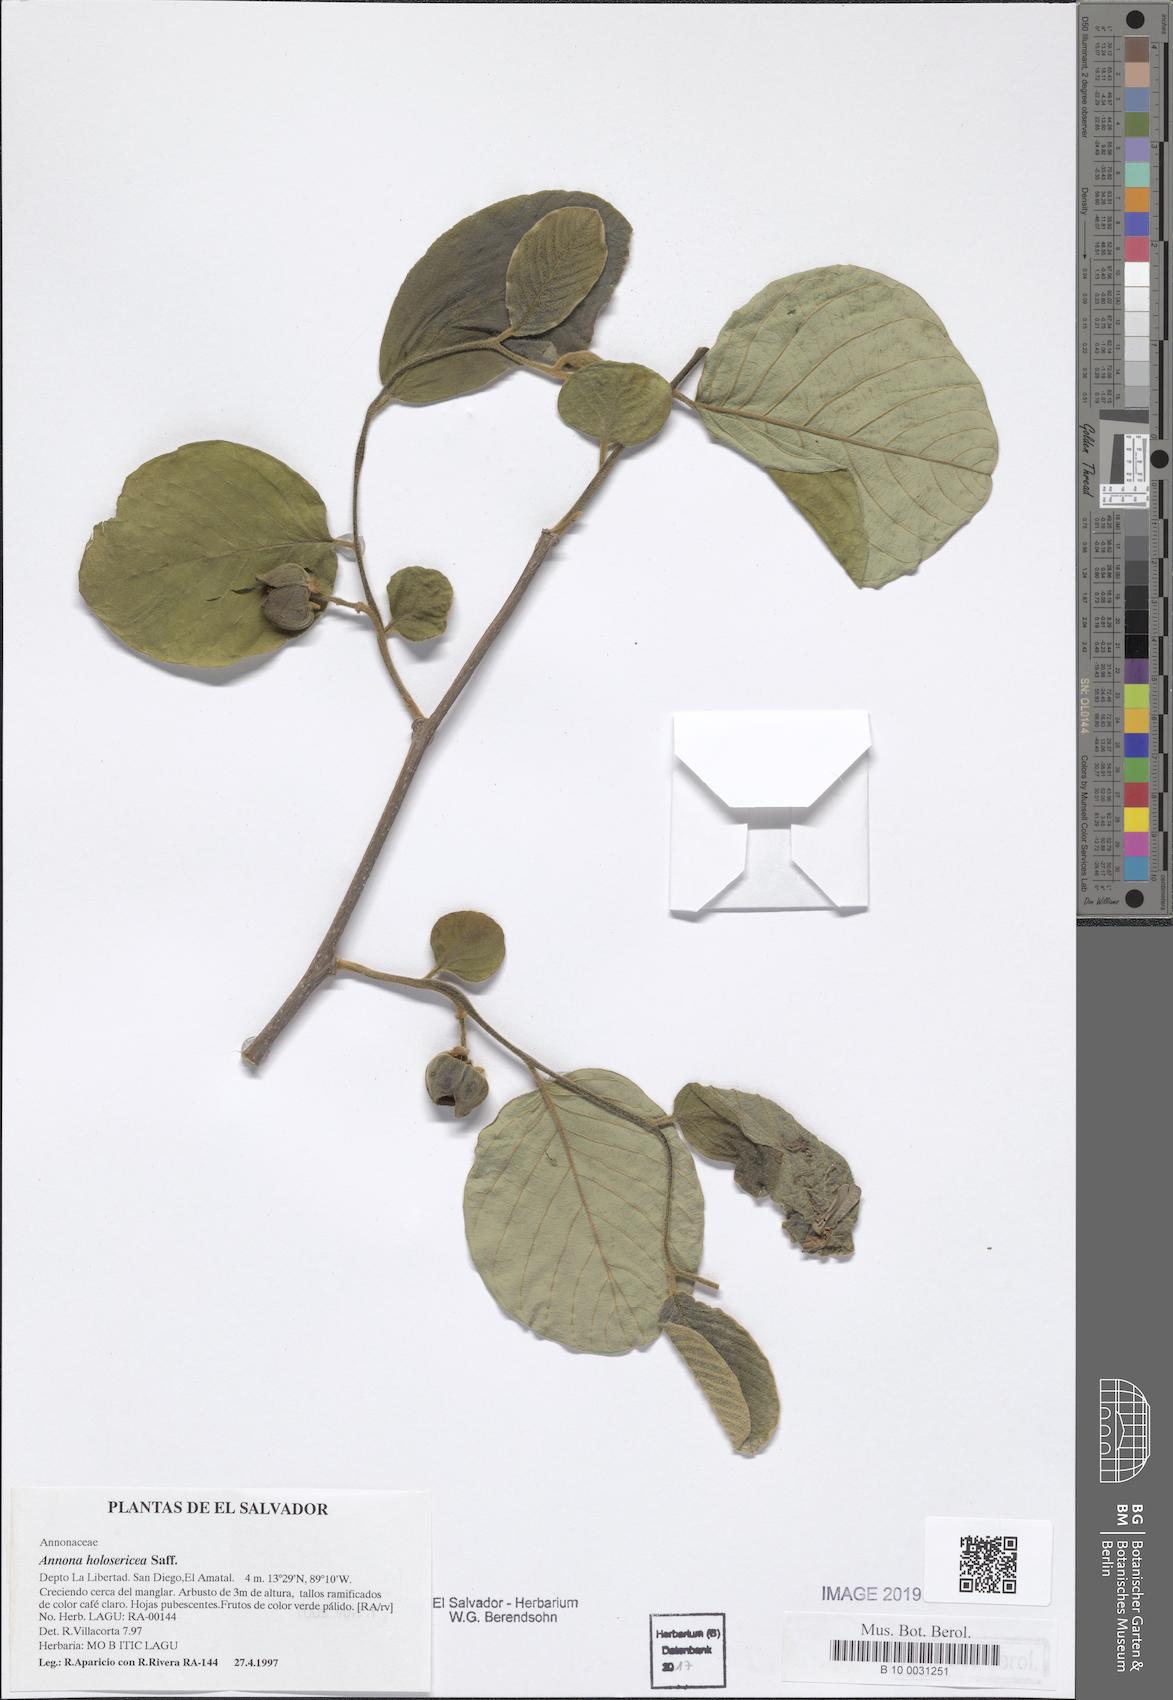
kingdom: Plantae
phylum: Tracheophyta
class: Magnoliopsida
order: Magnoliales
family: Annonaceae
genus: Annona
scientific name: Annona holosericea
